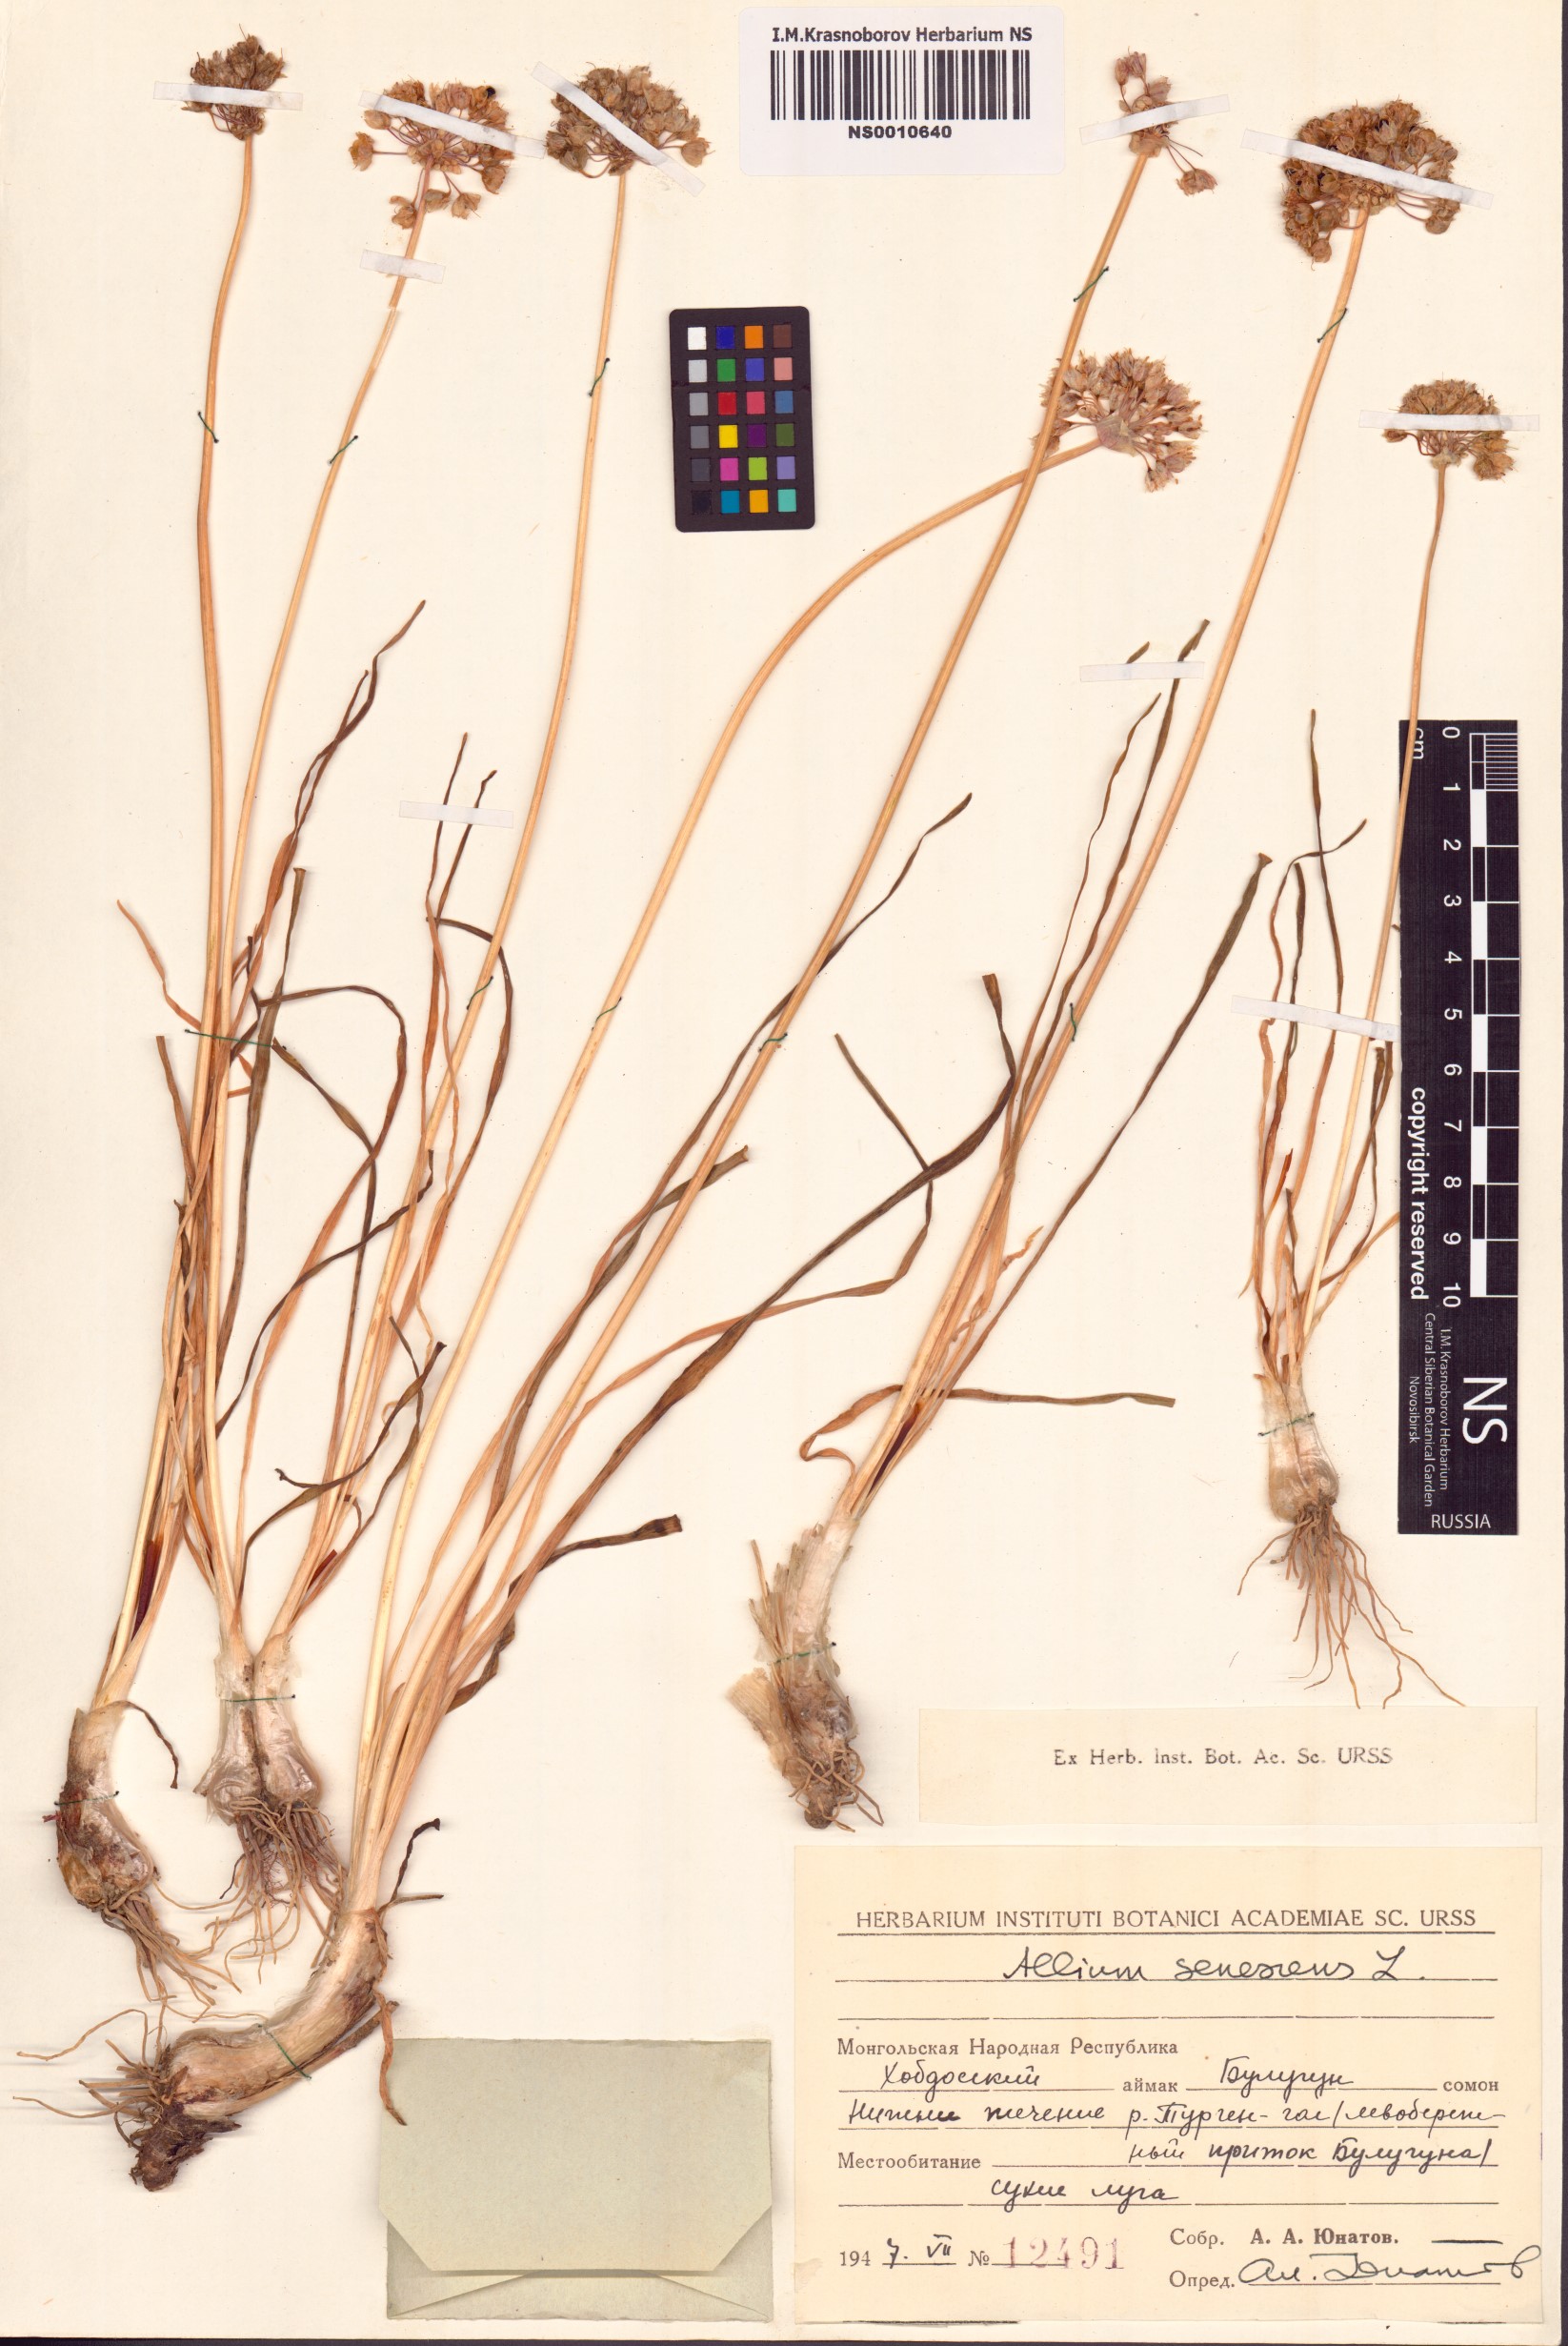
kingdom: Plantae
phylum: Tracheophyta
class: Liliopsida
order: Asparagales
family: Amaryllidaceae
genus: Allium
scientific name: Allium senescens
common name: German garlic
